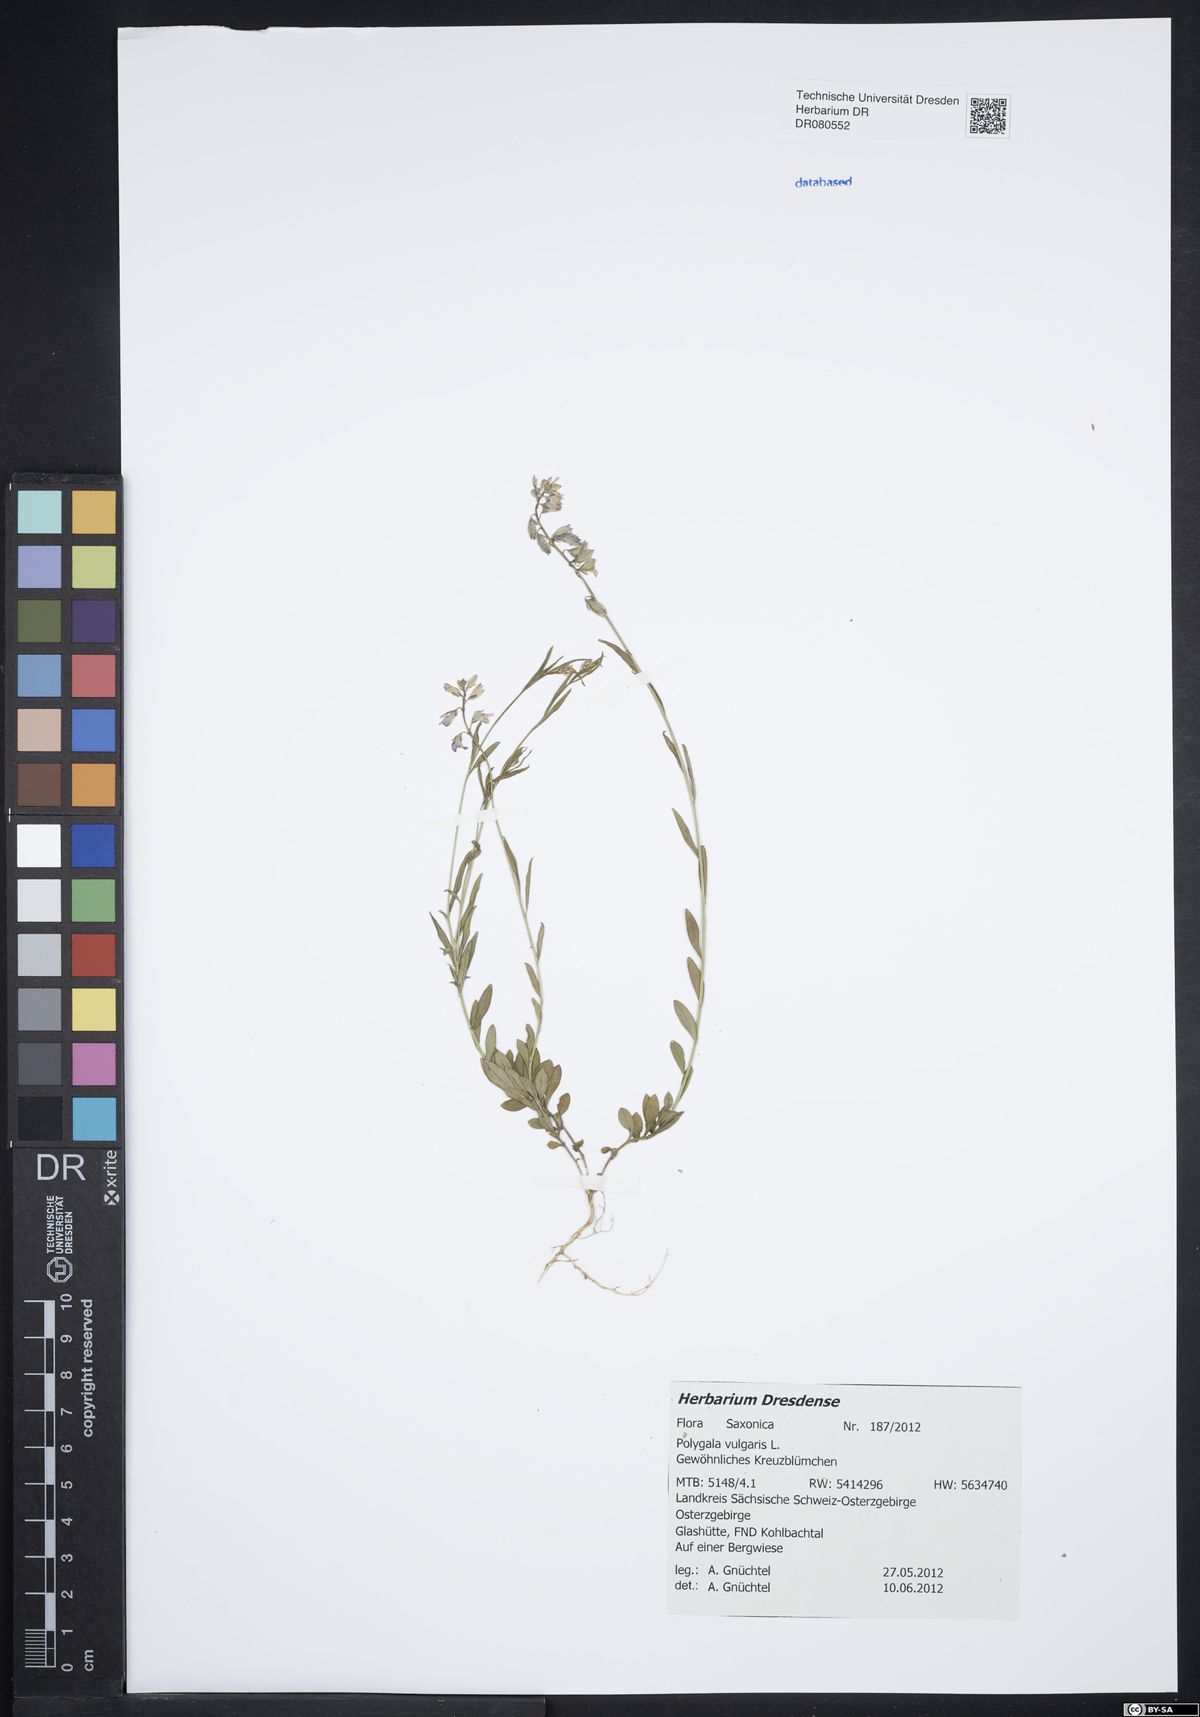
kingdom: Plantae
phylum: Tracheophyta
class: Magnoliopsida
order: Fabales
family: Polygalaceae
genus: Polygala
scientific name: Polygala vulgaris
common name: Common milkwort
